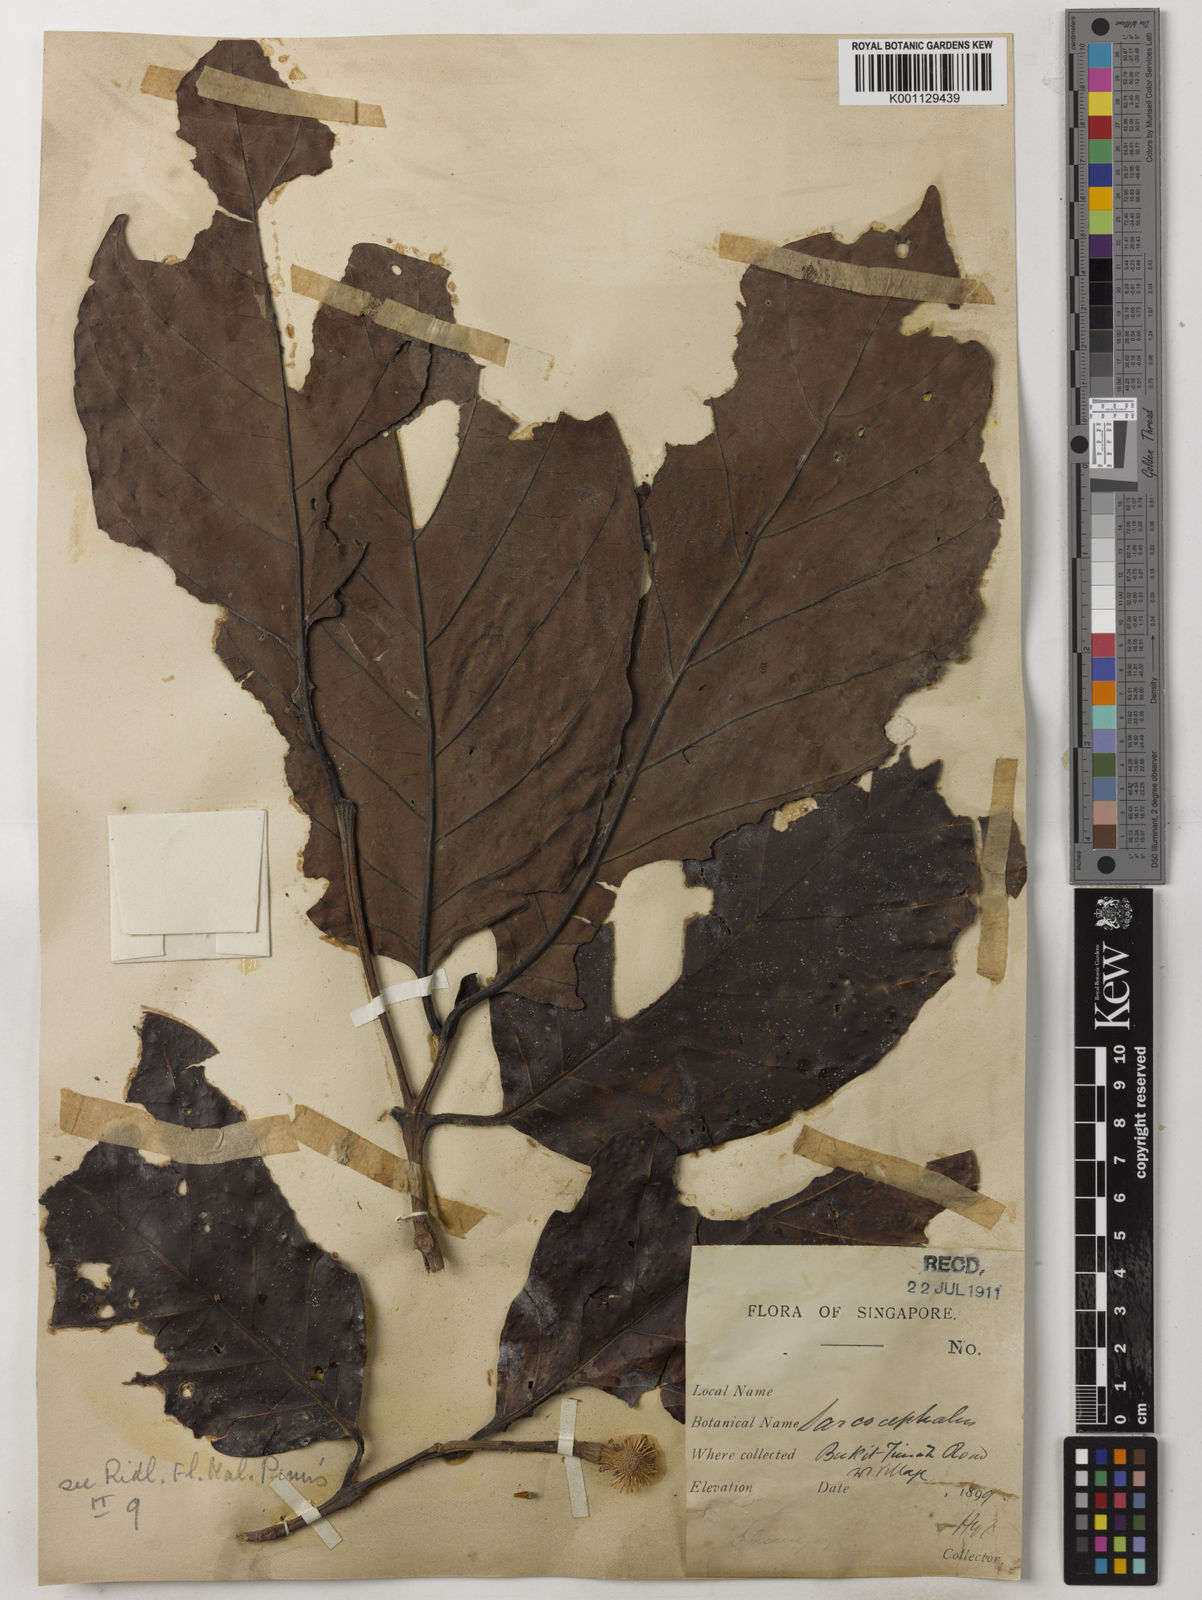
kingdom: Plantae
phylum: Tracheophyta
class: Magnoliopsida
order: Gentianales
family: Rubiaceae
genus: Neonauclea
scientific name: Neonauclea calycina
